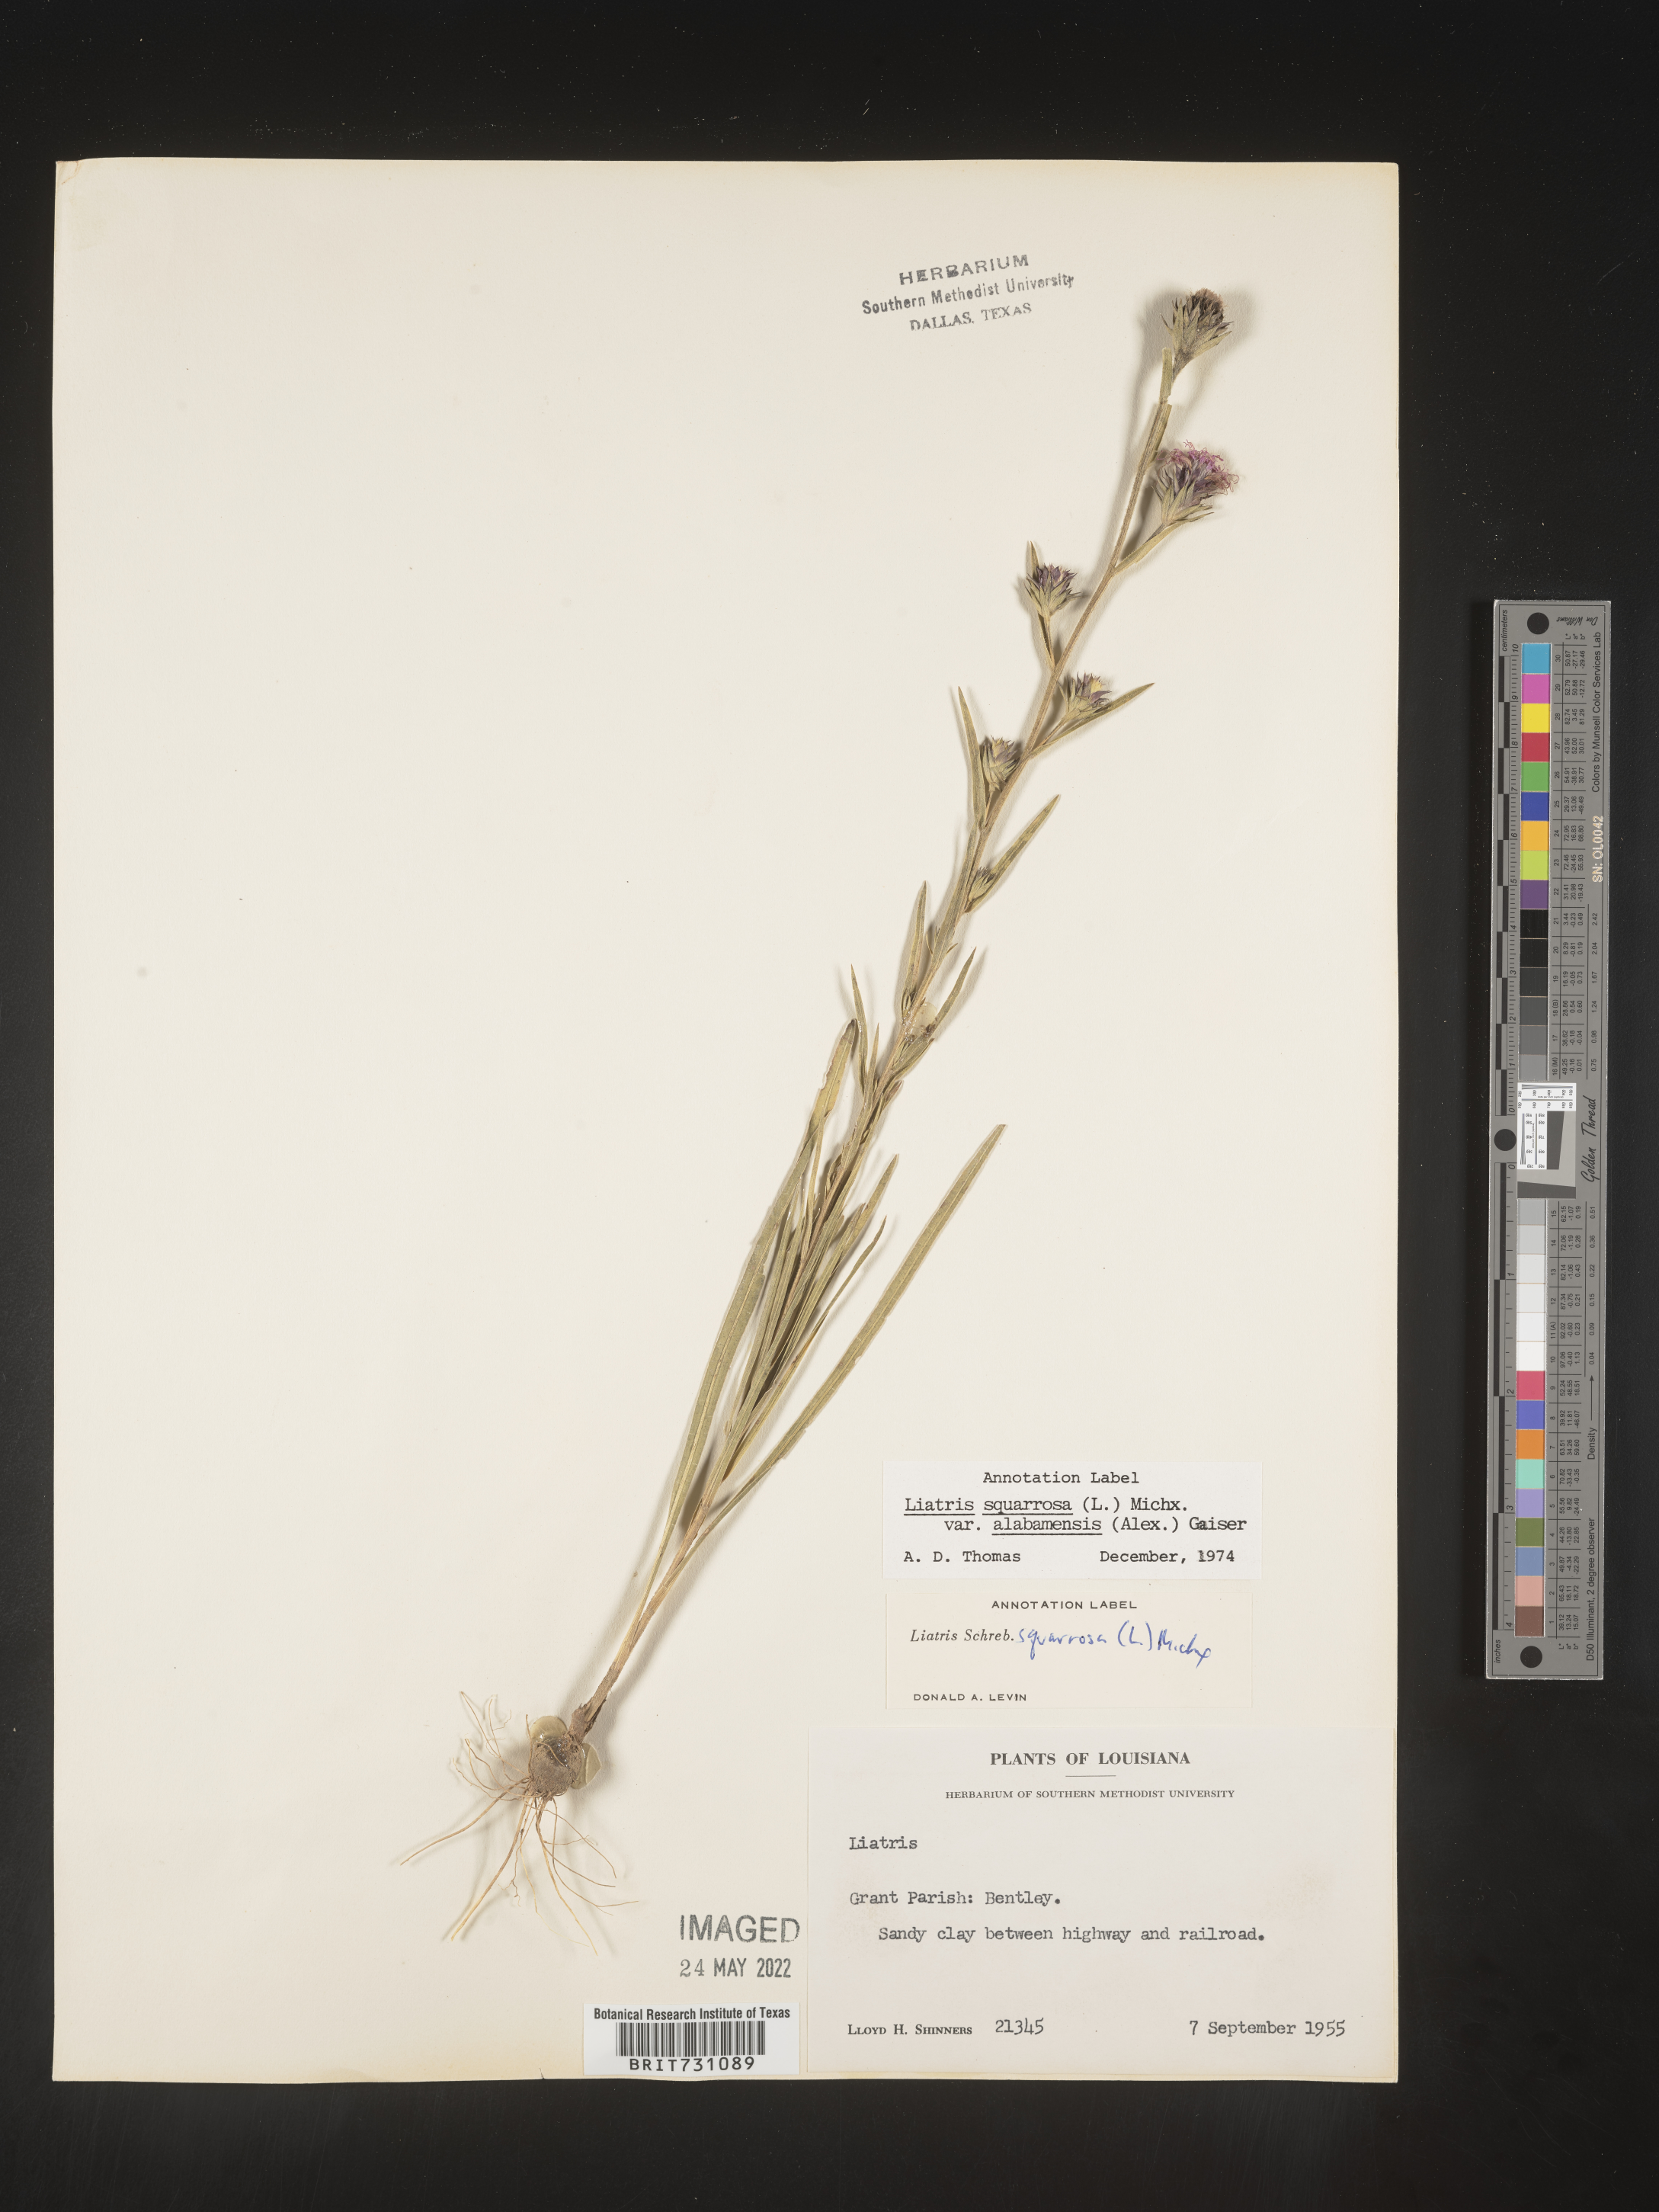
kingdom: Plantae
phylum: Tracheophyta
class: Magnoliopsida
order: Asterales
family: Asteraceae
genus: Liatris
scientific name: Liatris squarrosa
